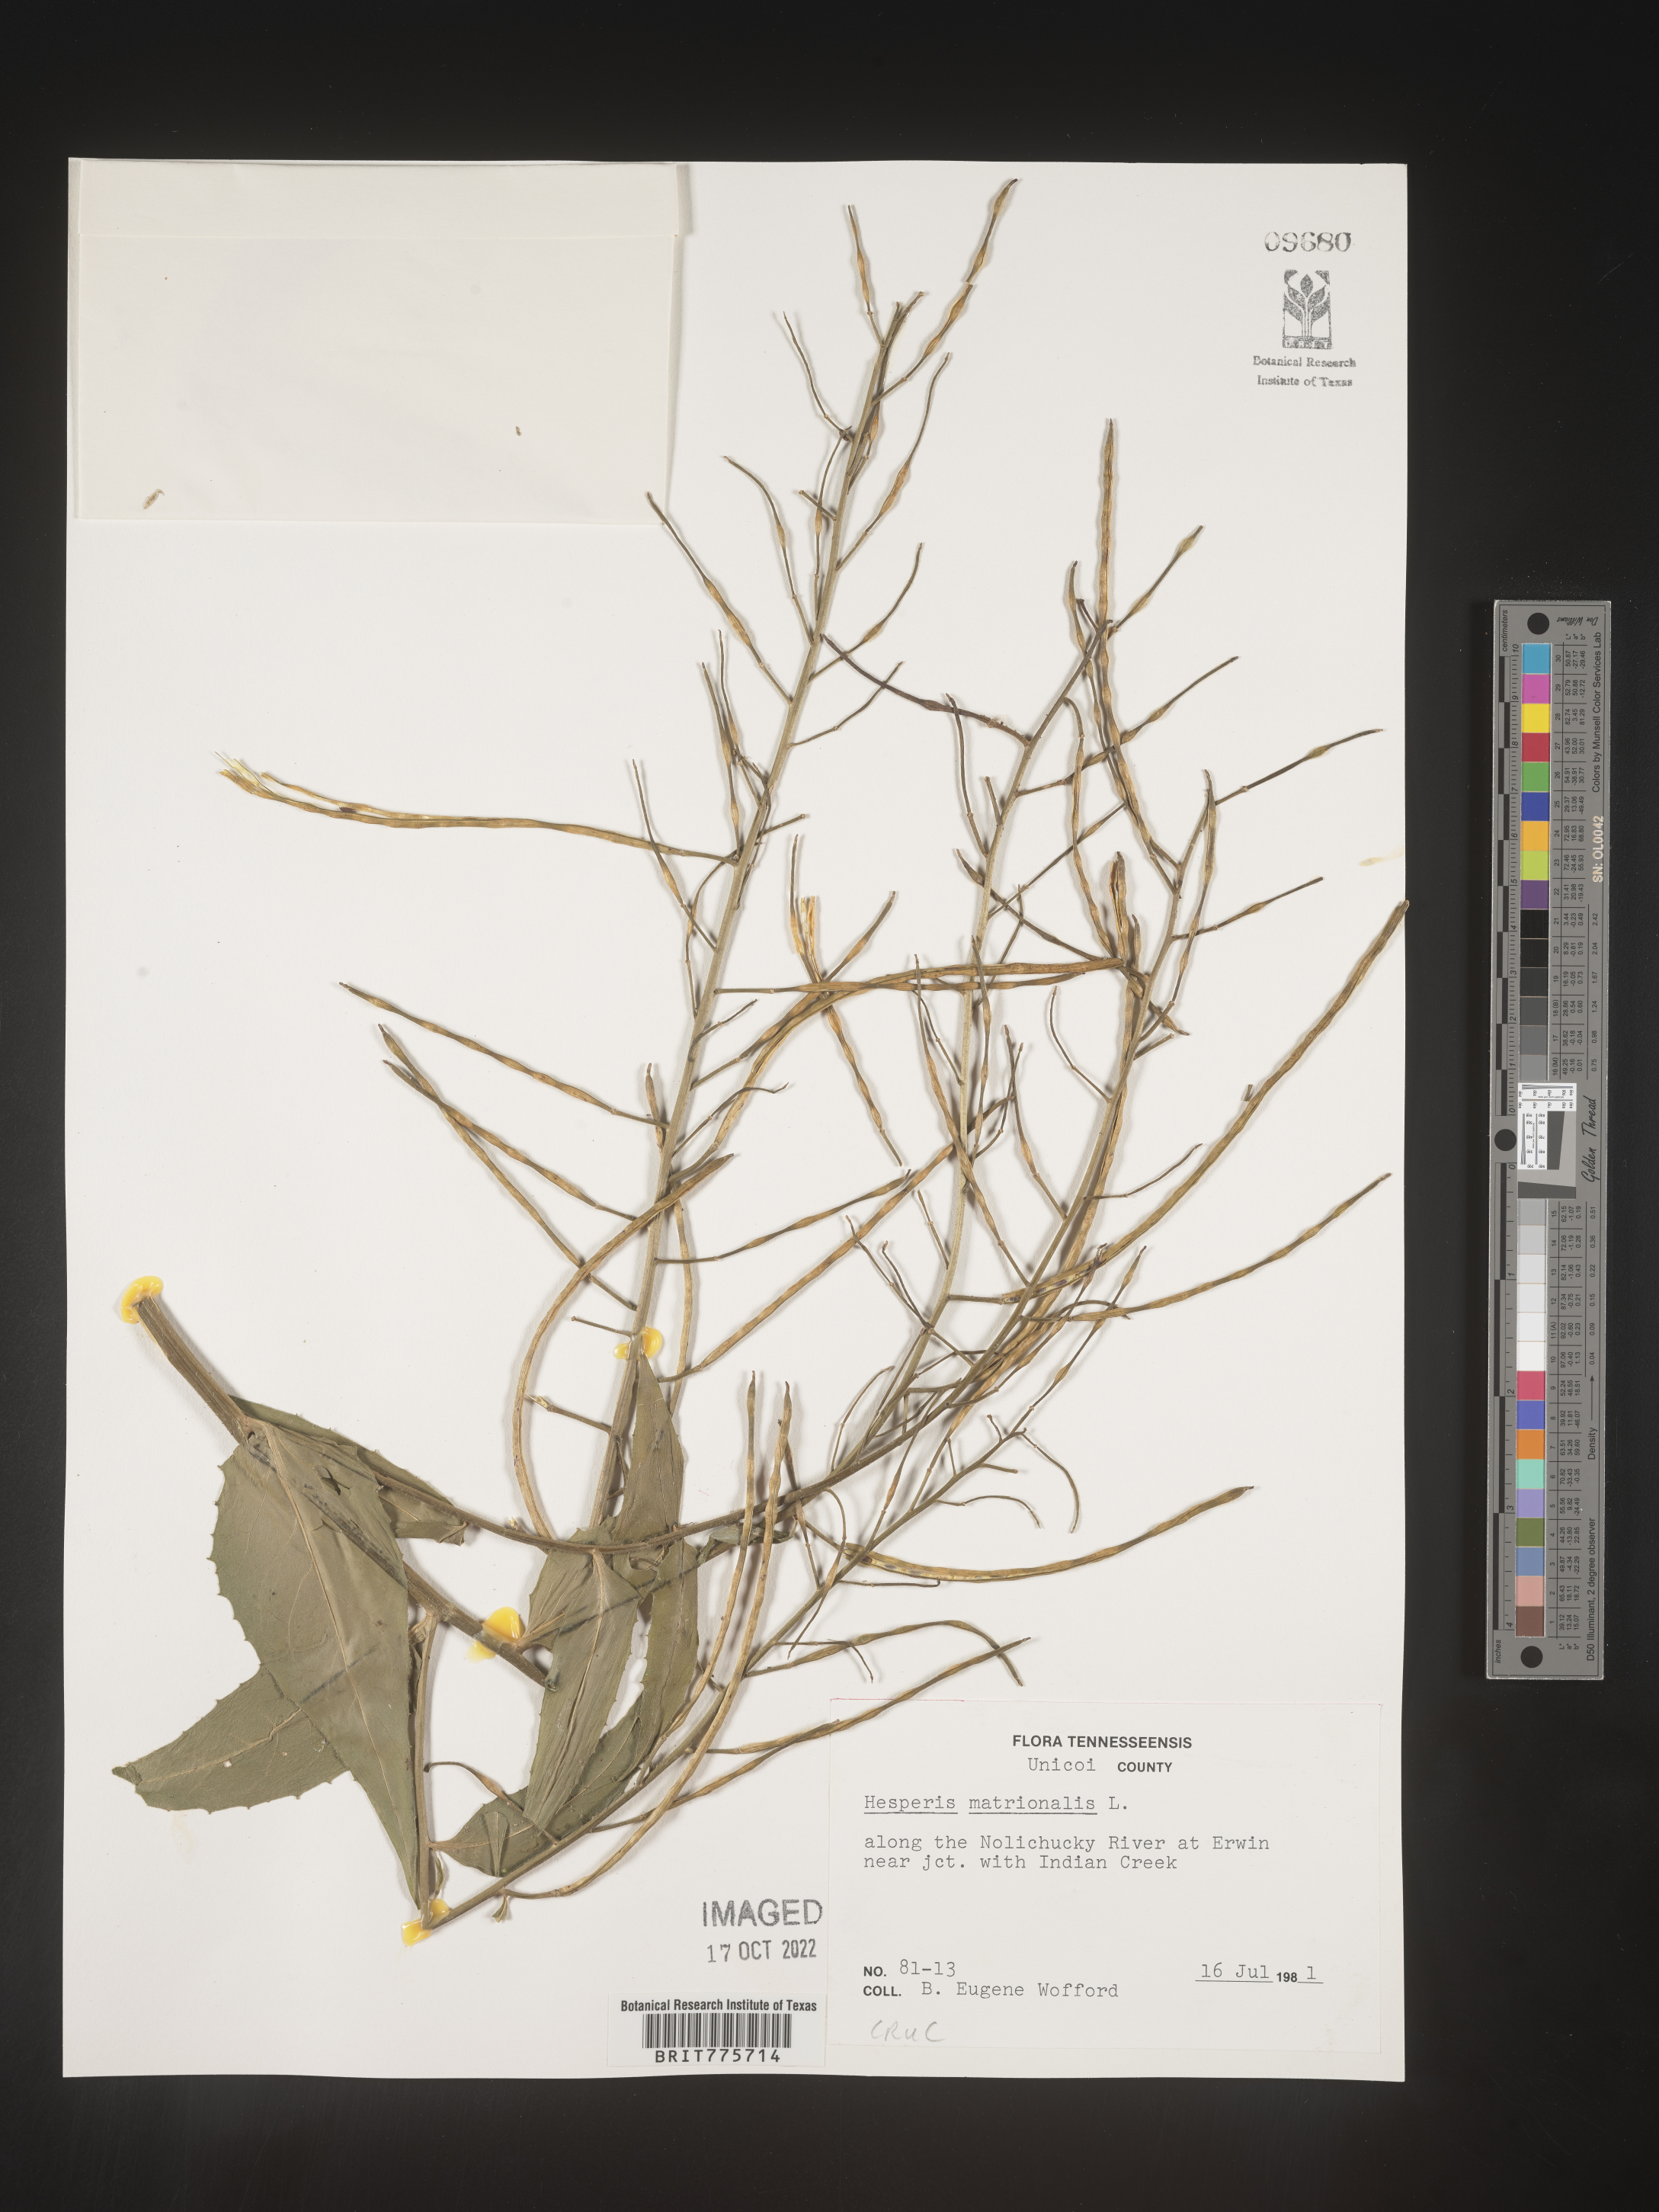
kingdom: Plantae
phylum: Tracheophyta
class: Magnoliopsida
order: Brassicales
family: Brassicaceae
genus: Hesperis
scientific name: Hesperis matronalis
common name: Dame's-violet
